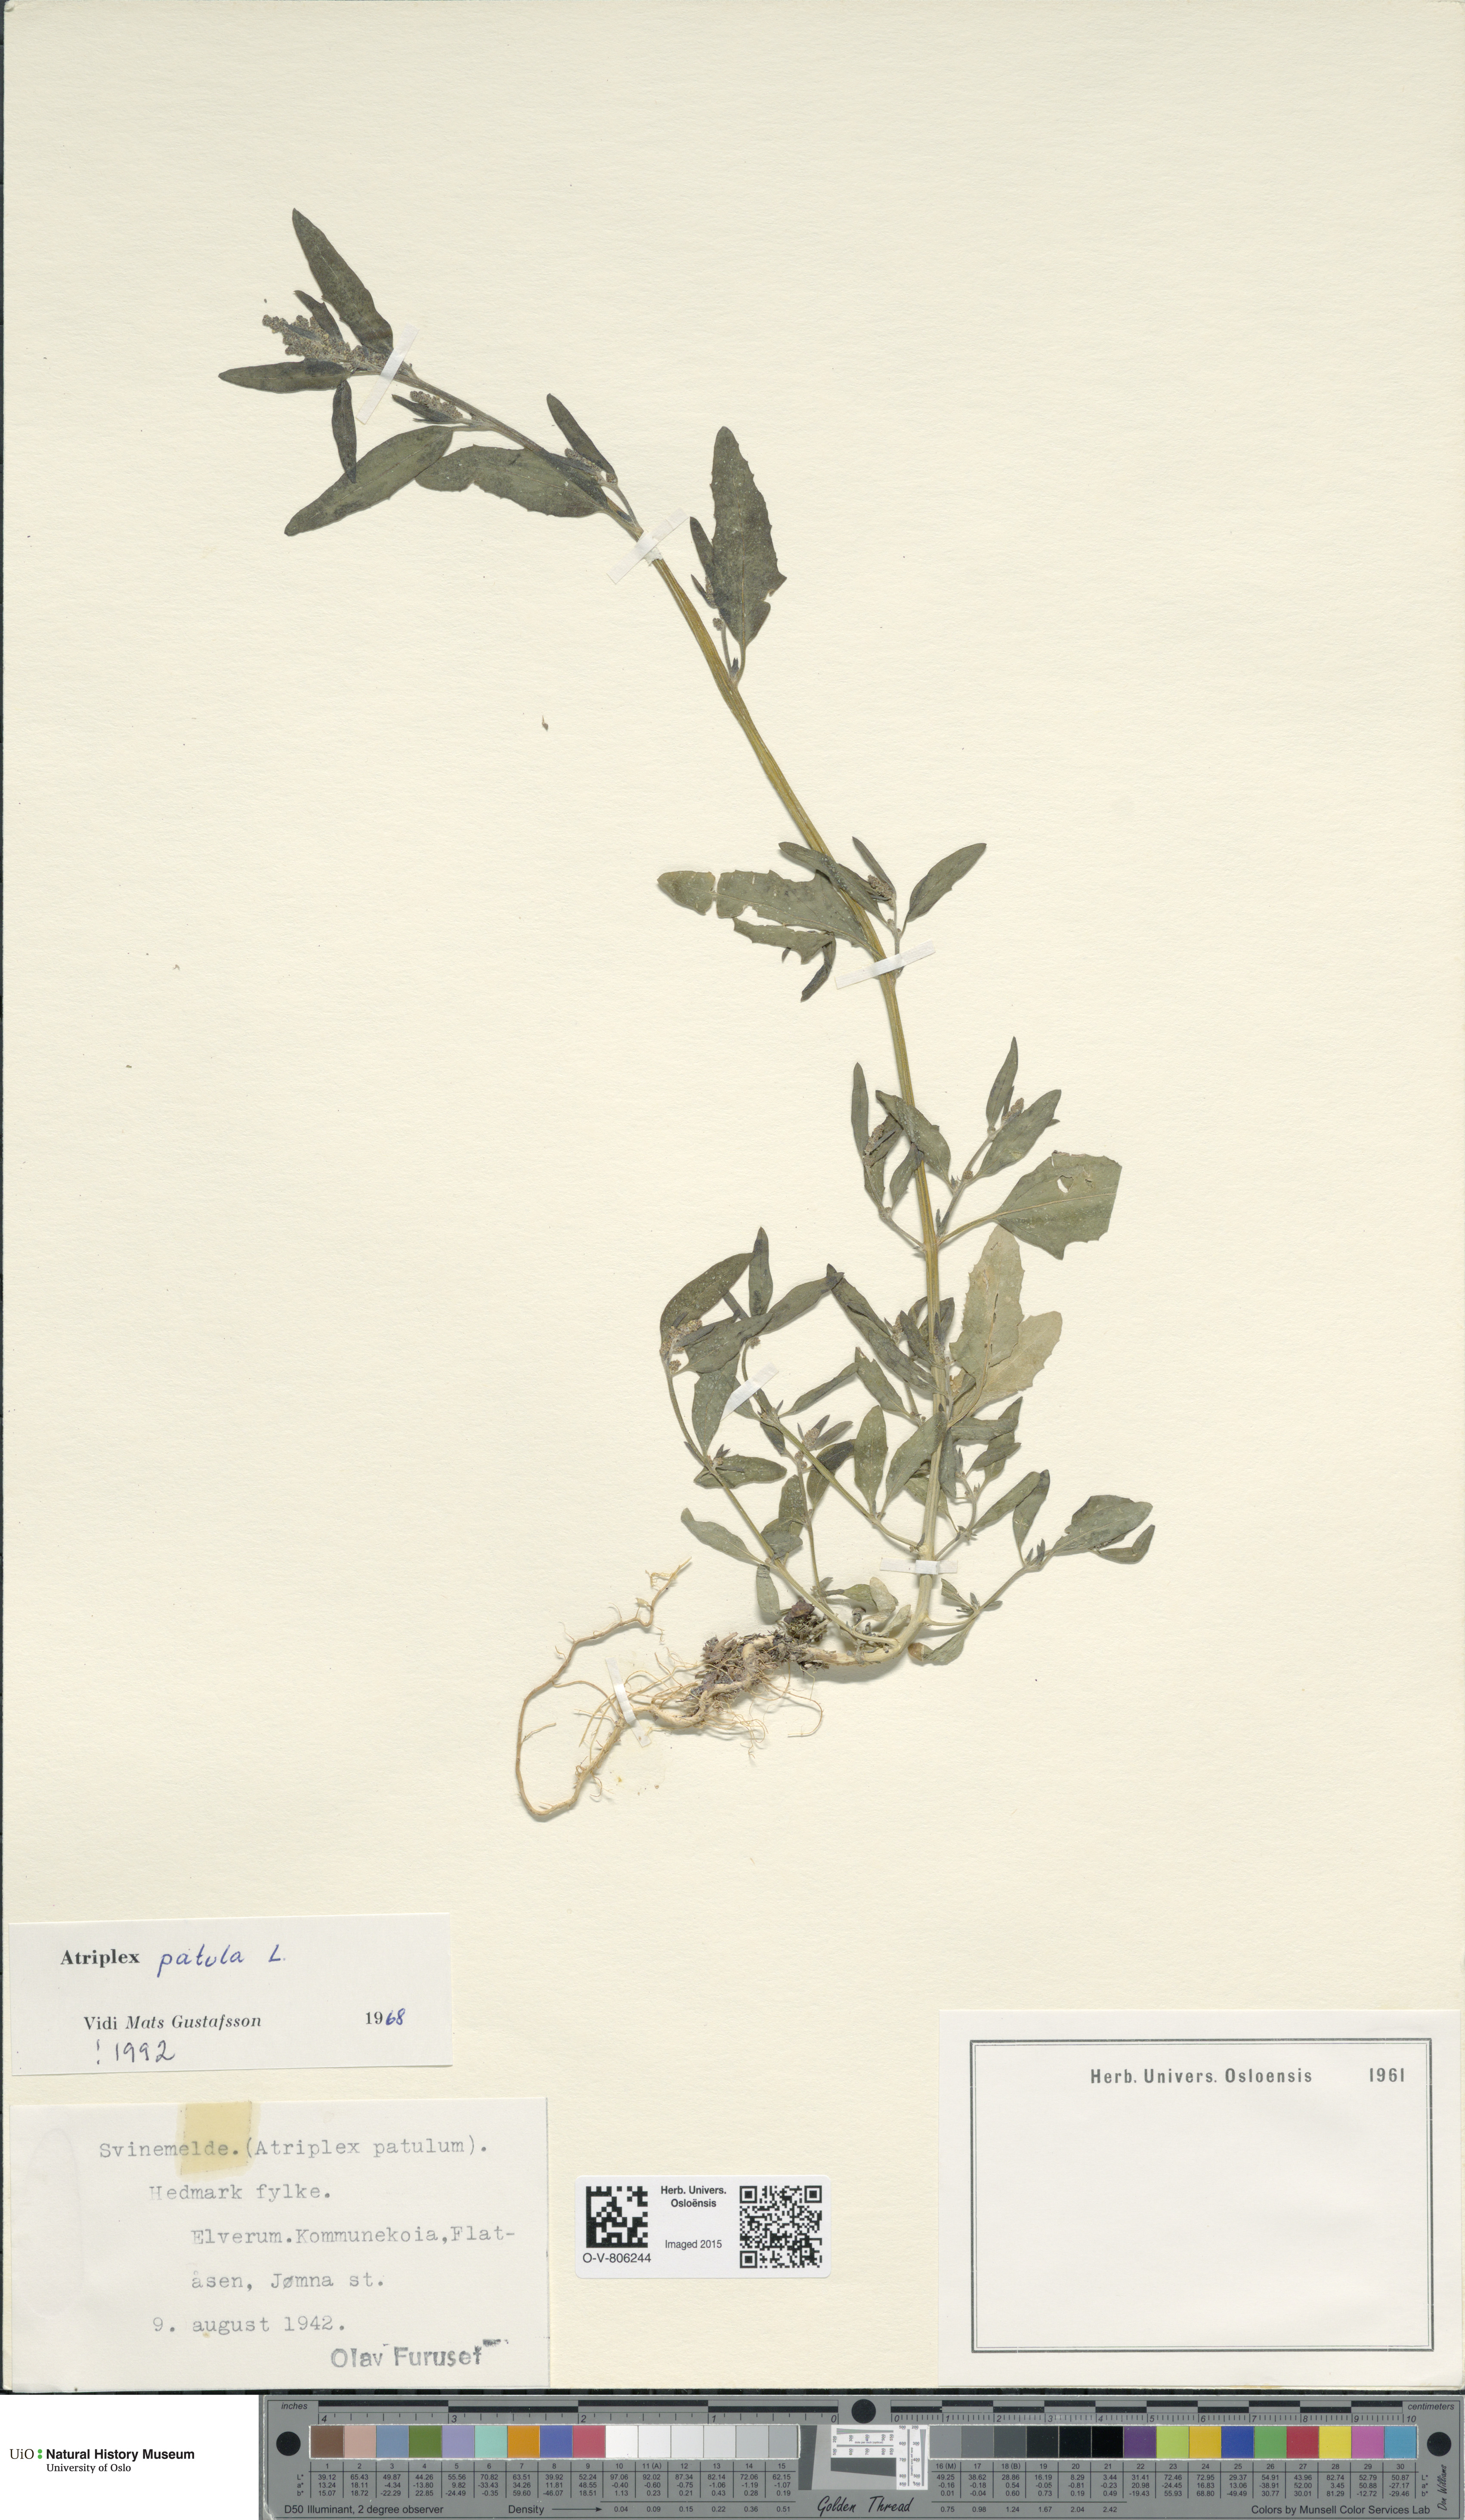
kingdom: Plantae
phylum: Tracheophyta
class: Magnoliopsida
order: Caryophyllales
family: Amaranthaceae
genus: Atriplex
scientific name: Atriplex patula
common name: Common orache
